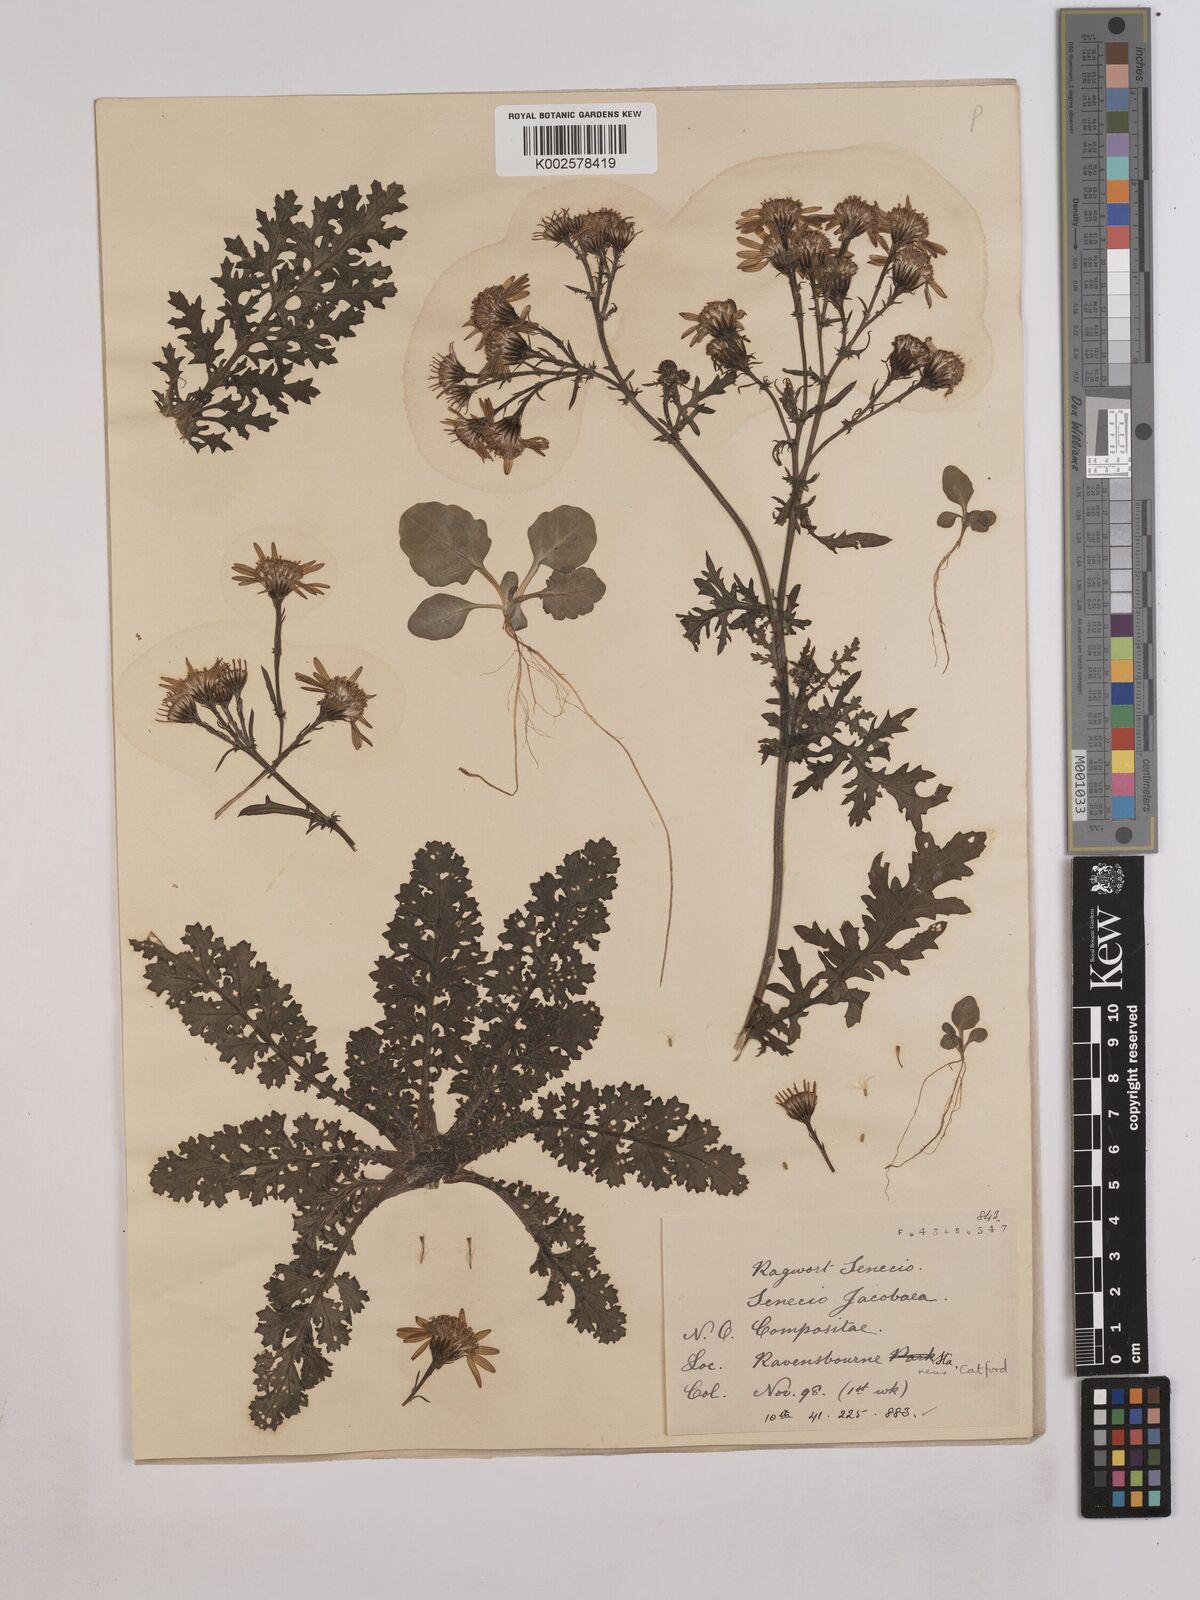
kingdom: Plantae
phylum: Tracheophyta
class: Magnoliopsida
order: Asterales
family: Asteraceae
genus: Jacobaea
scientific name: Jacobaea vulgaris
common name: Stinking willie
